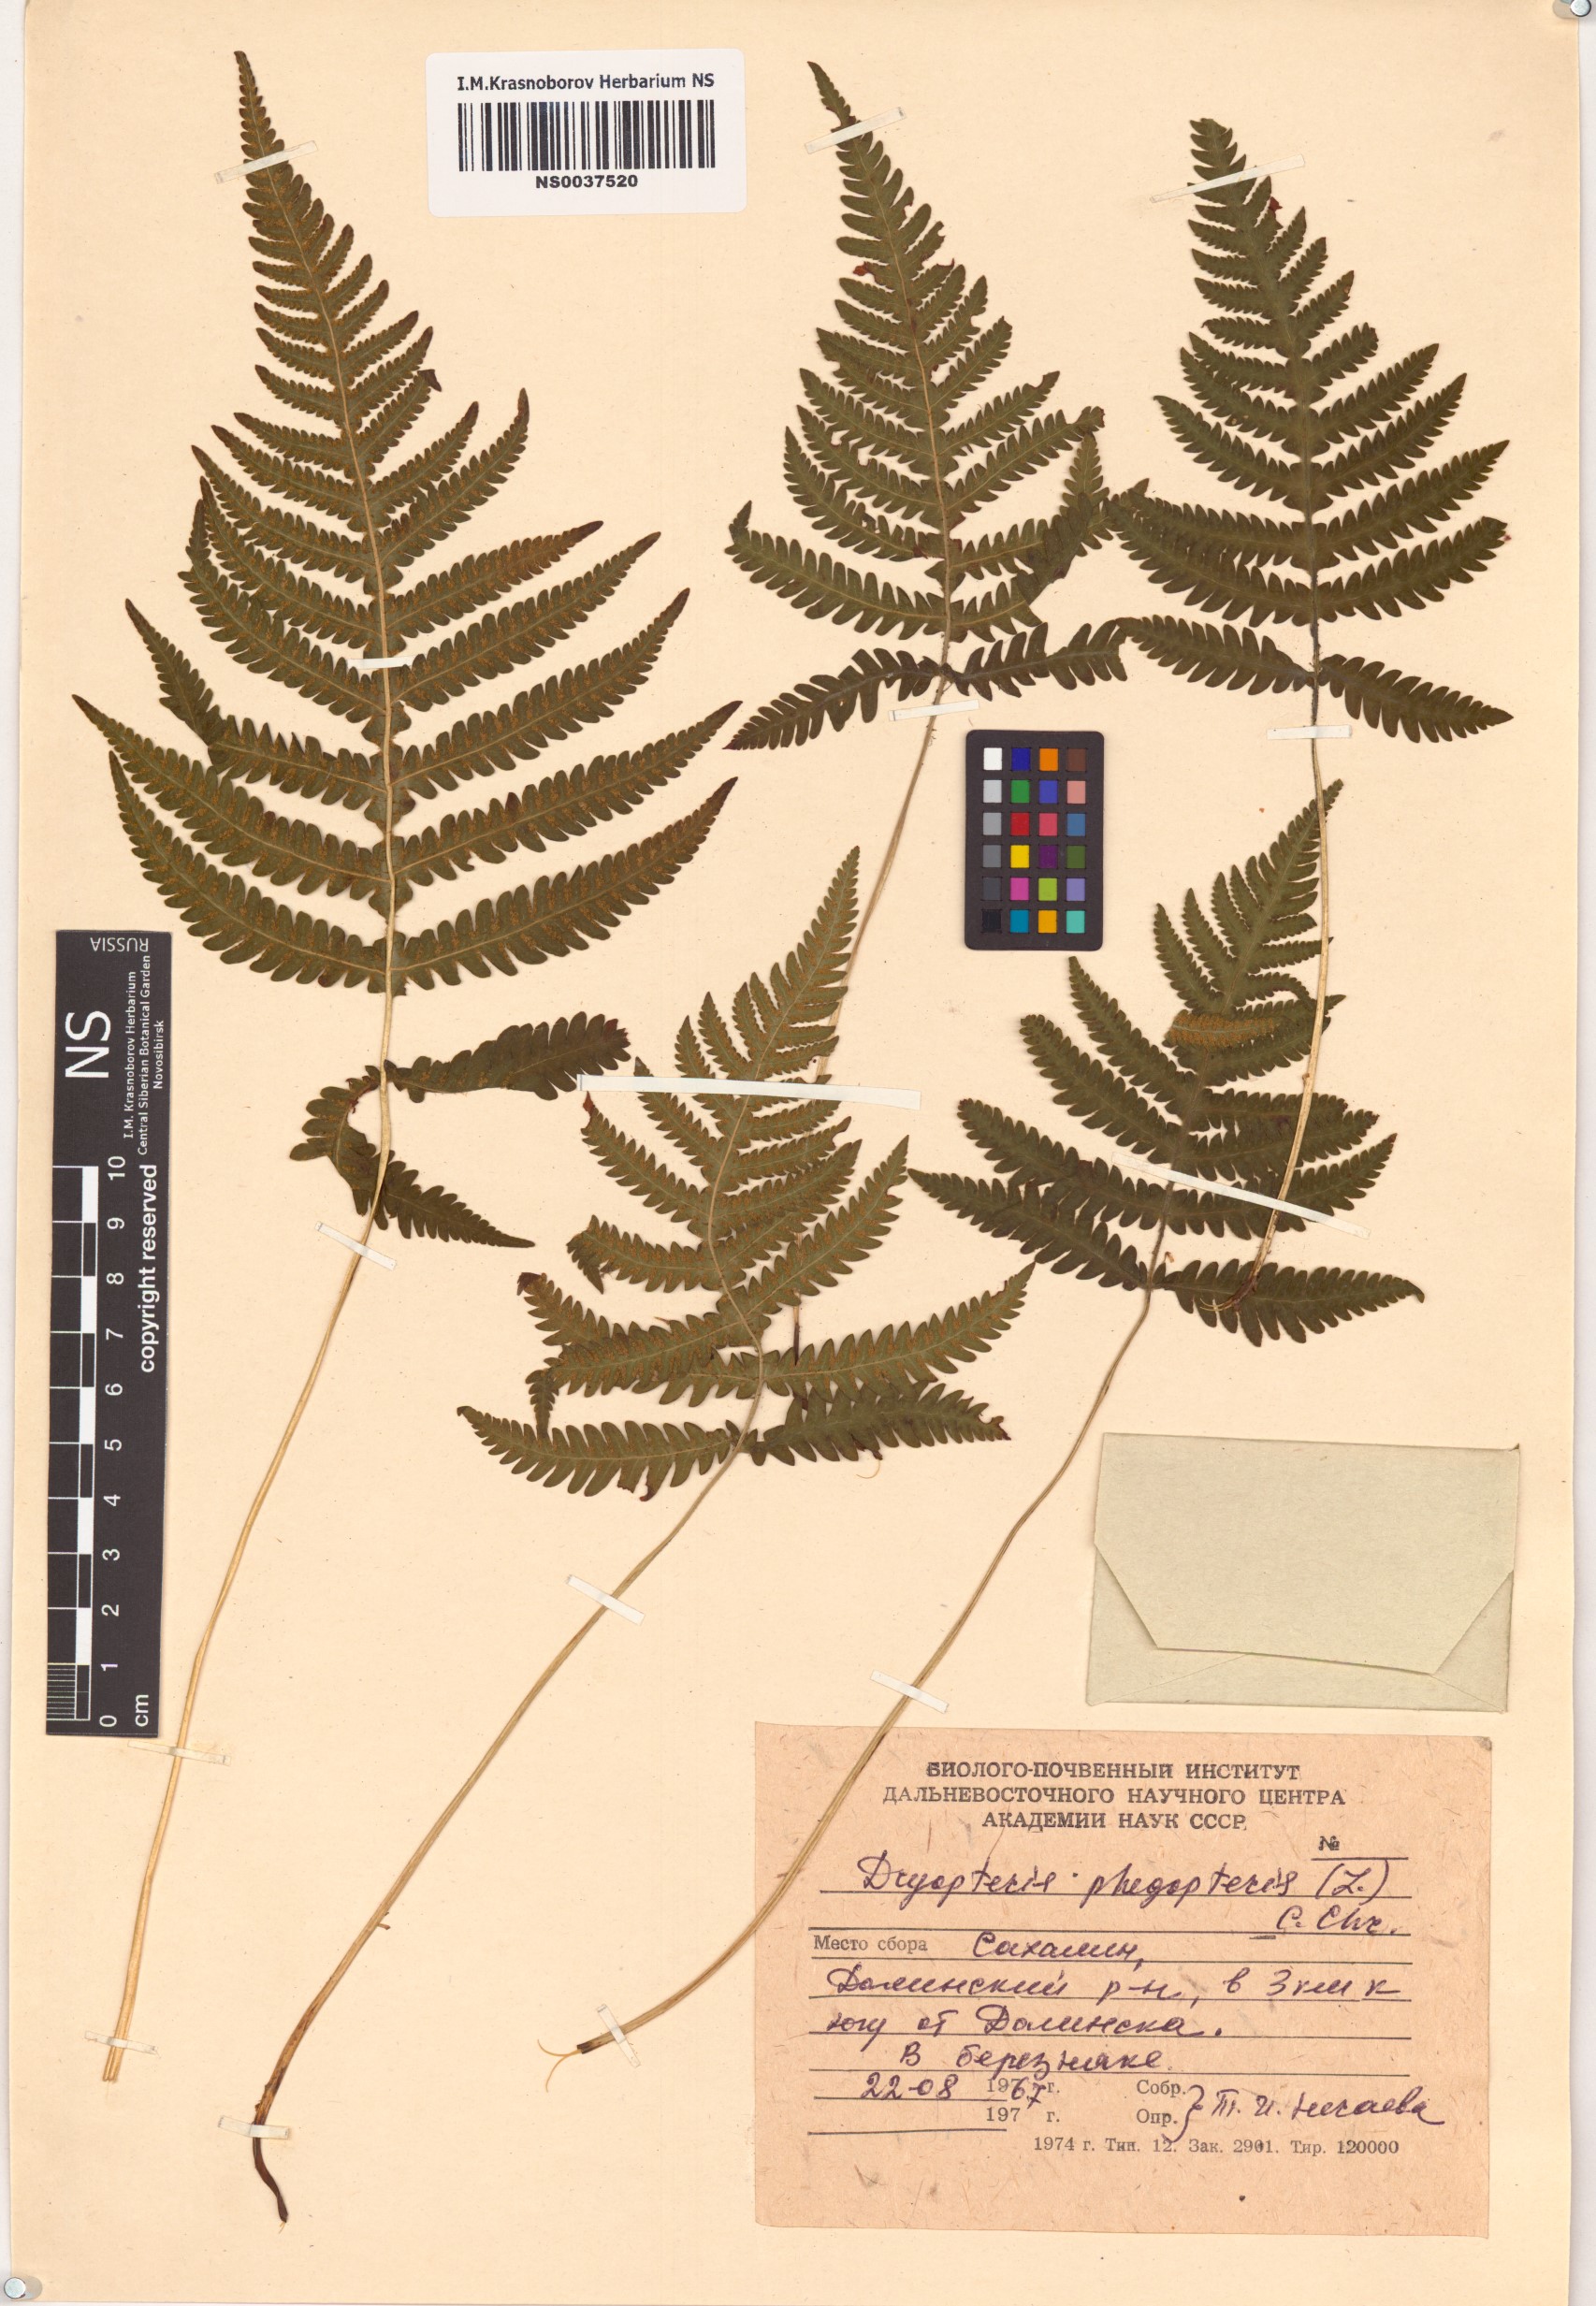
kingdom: Plantae
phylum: Tracheophyta
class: Polypodiopsida
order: Polypodiales
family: Thelypteridaceae
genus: Phegopteris
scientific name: Phegopteris connectilis
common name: Beech fern
